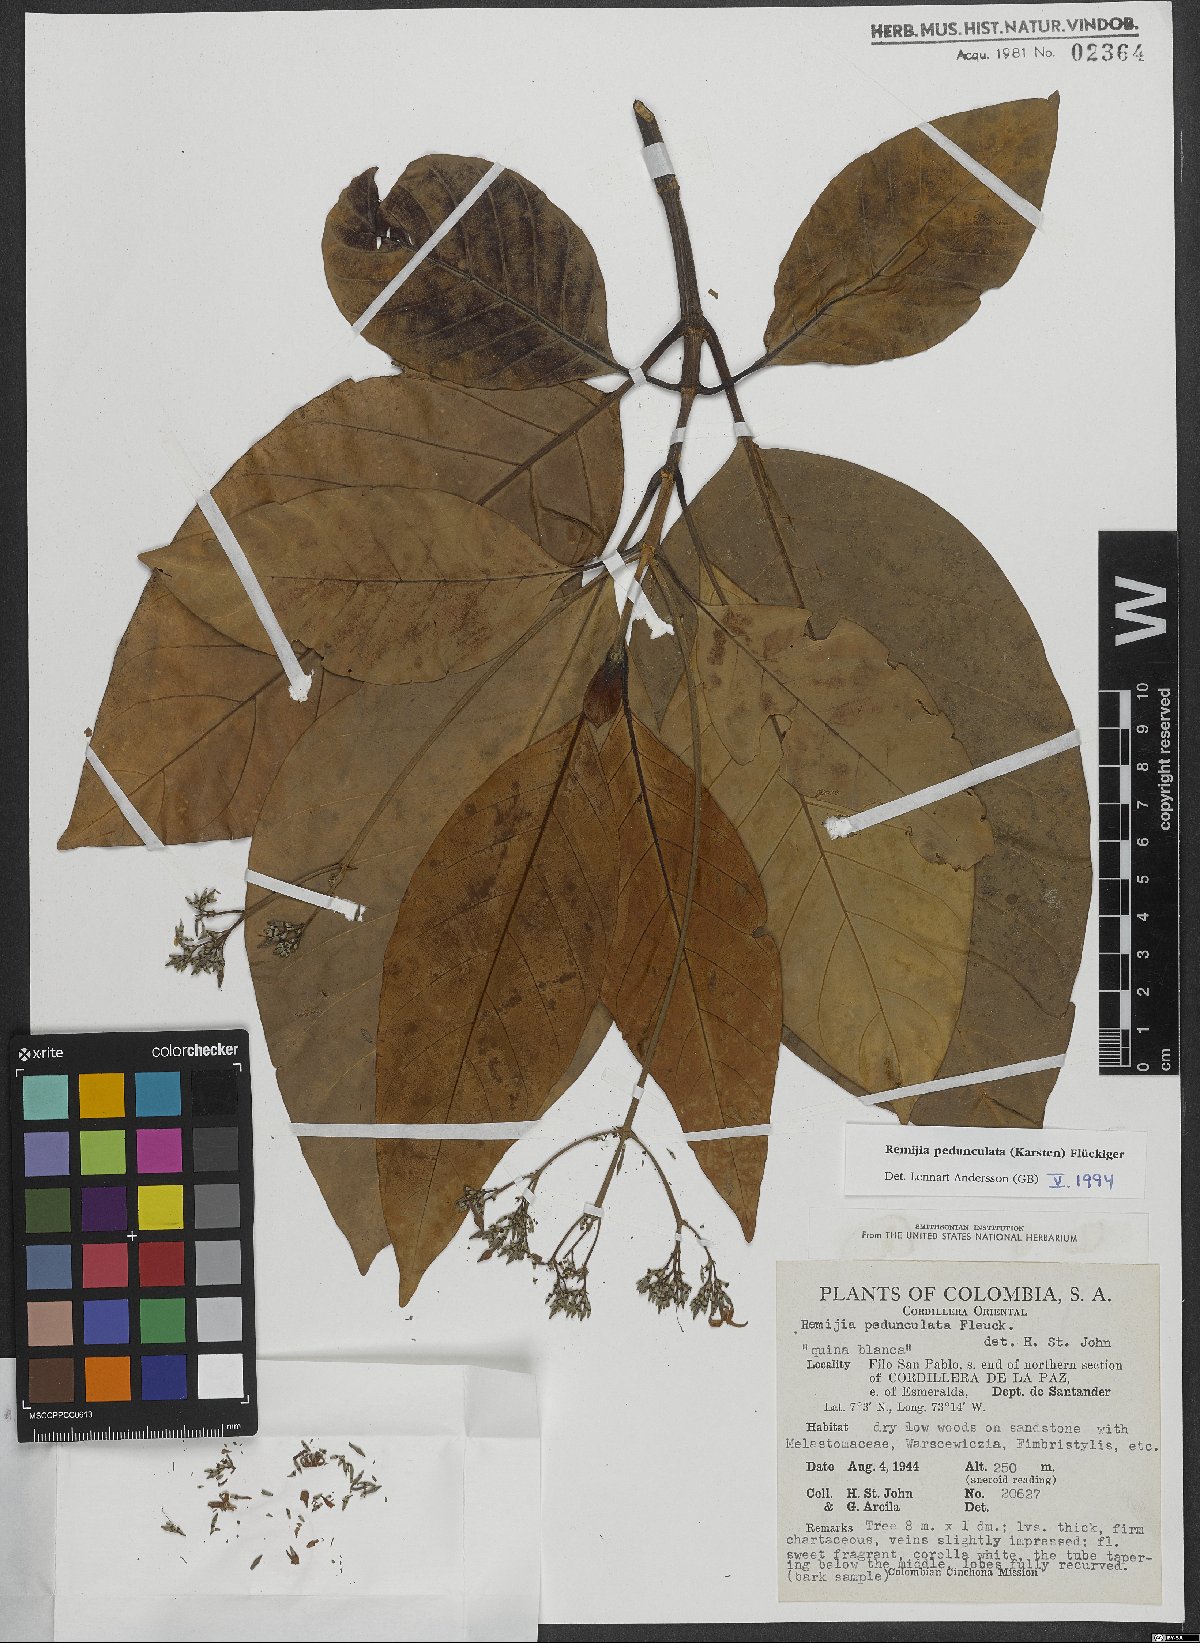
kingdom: Plantae
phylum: Tracheophyta
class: Magnoliopsida
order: Gentianales
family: Rubiaceae
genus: Ciliosemina
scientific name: Ciliosemina pedunculata
